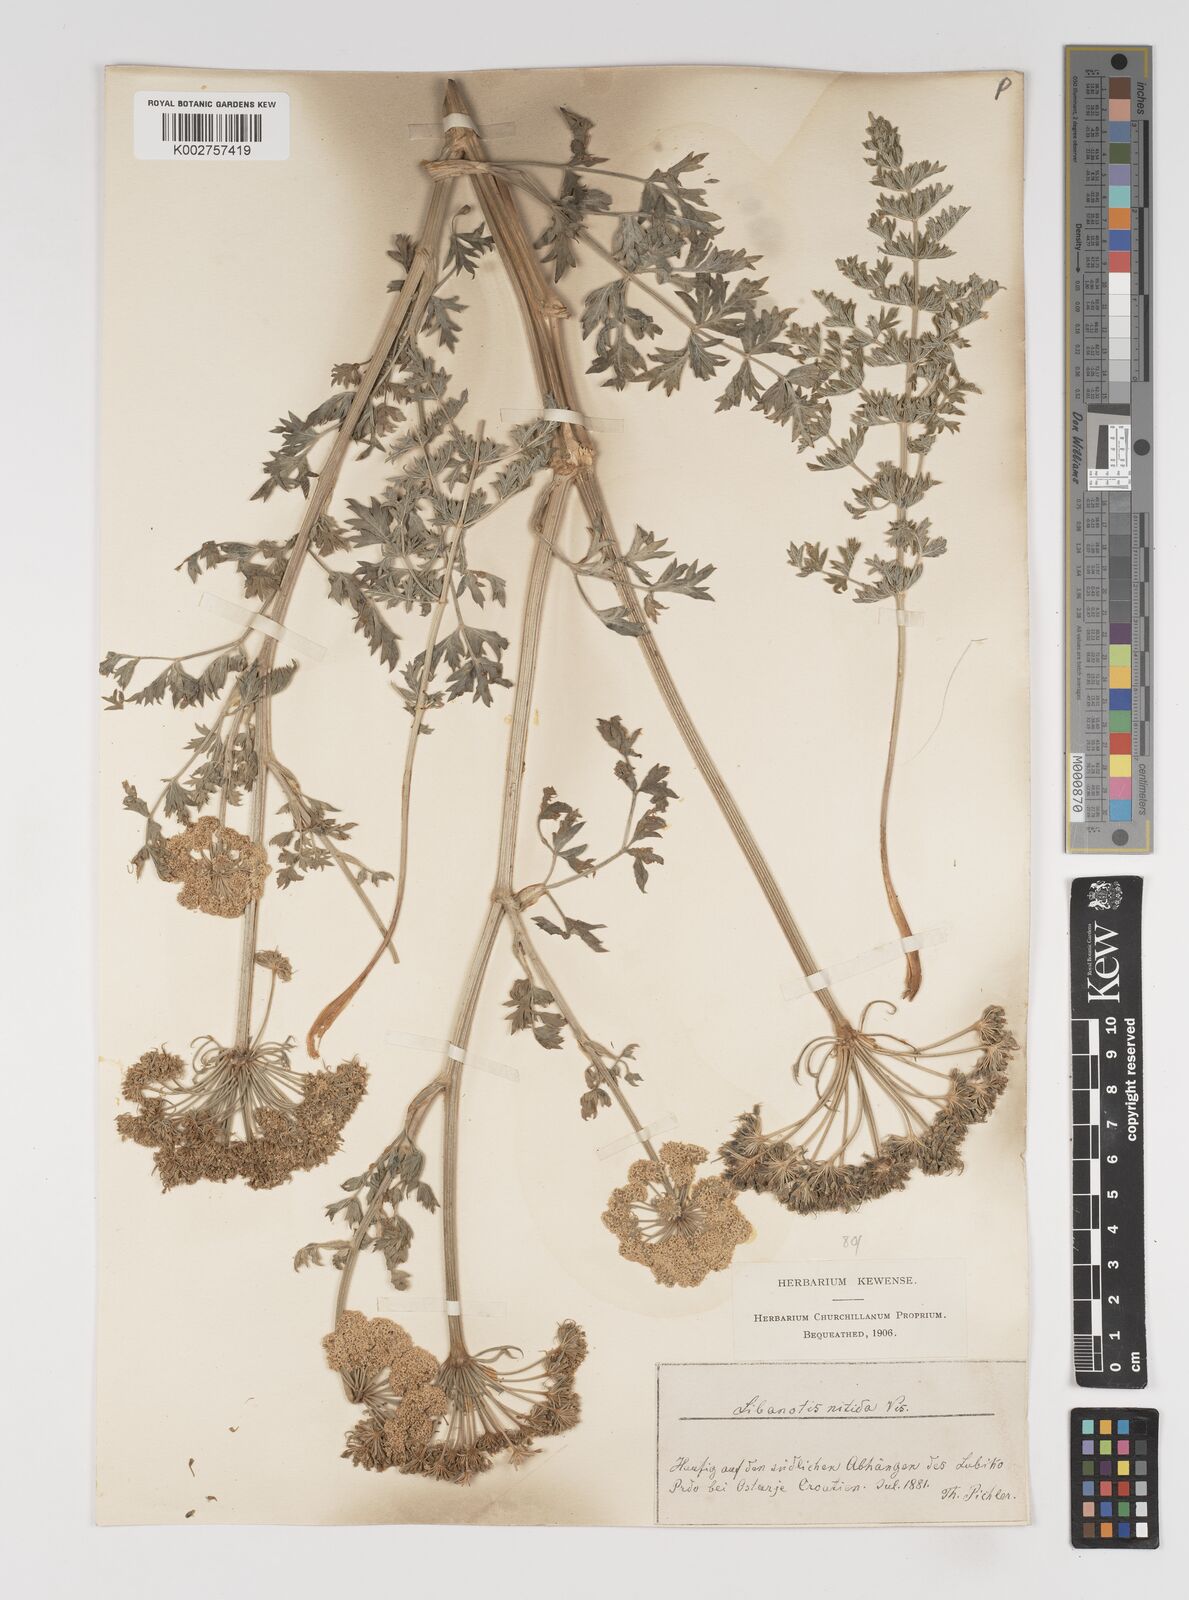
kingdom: Plantae
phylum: Tracheophyta
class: Magnoliopsida
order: Apiales
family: Apiaceae
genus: Stenocoelium
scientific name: Stenocoelium athamantoides
